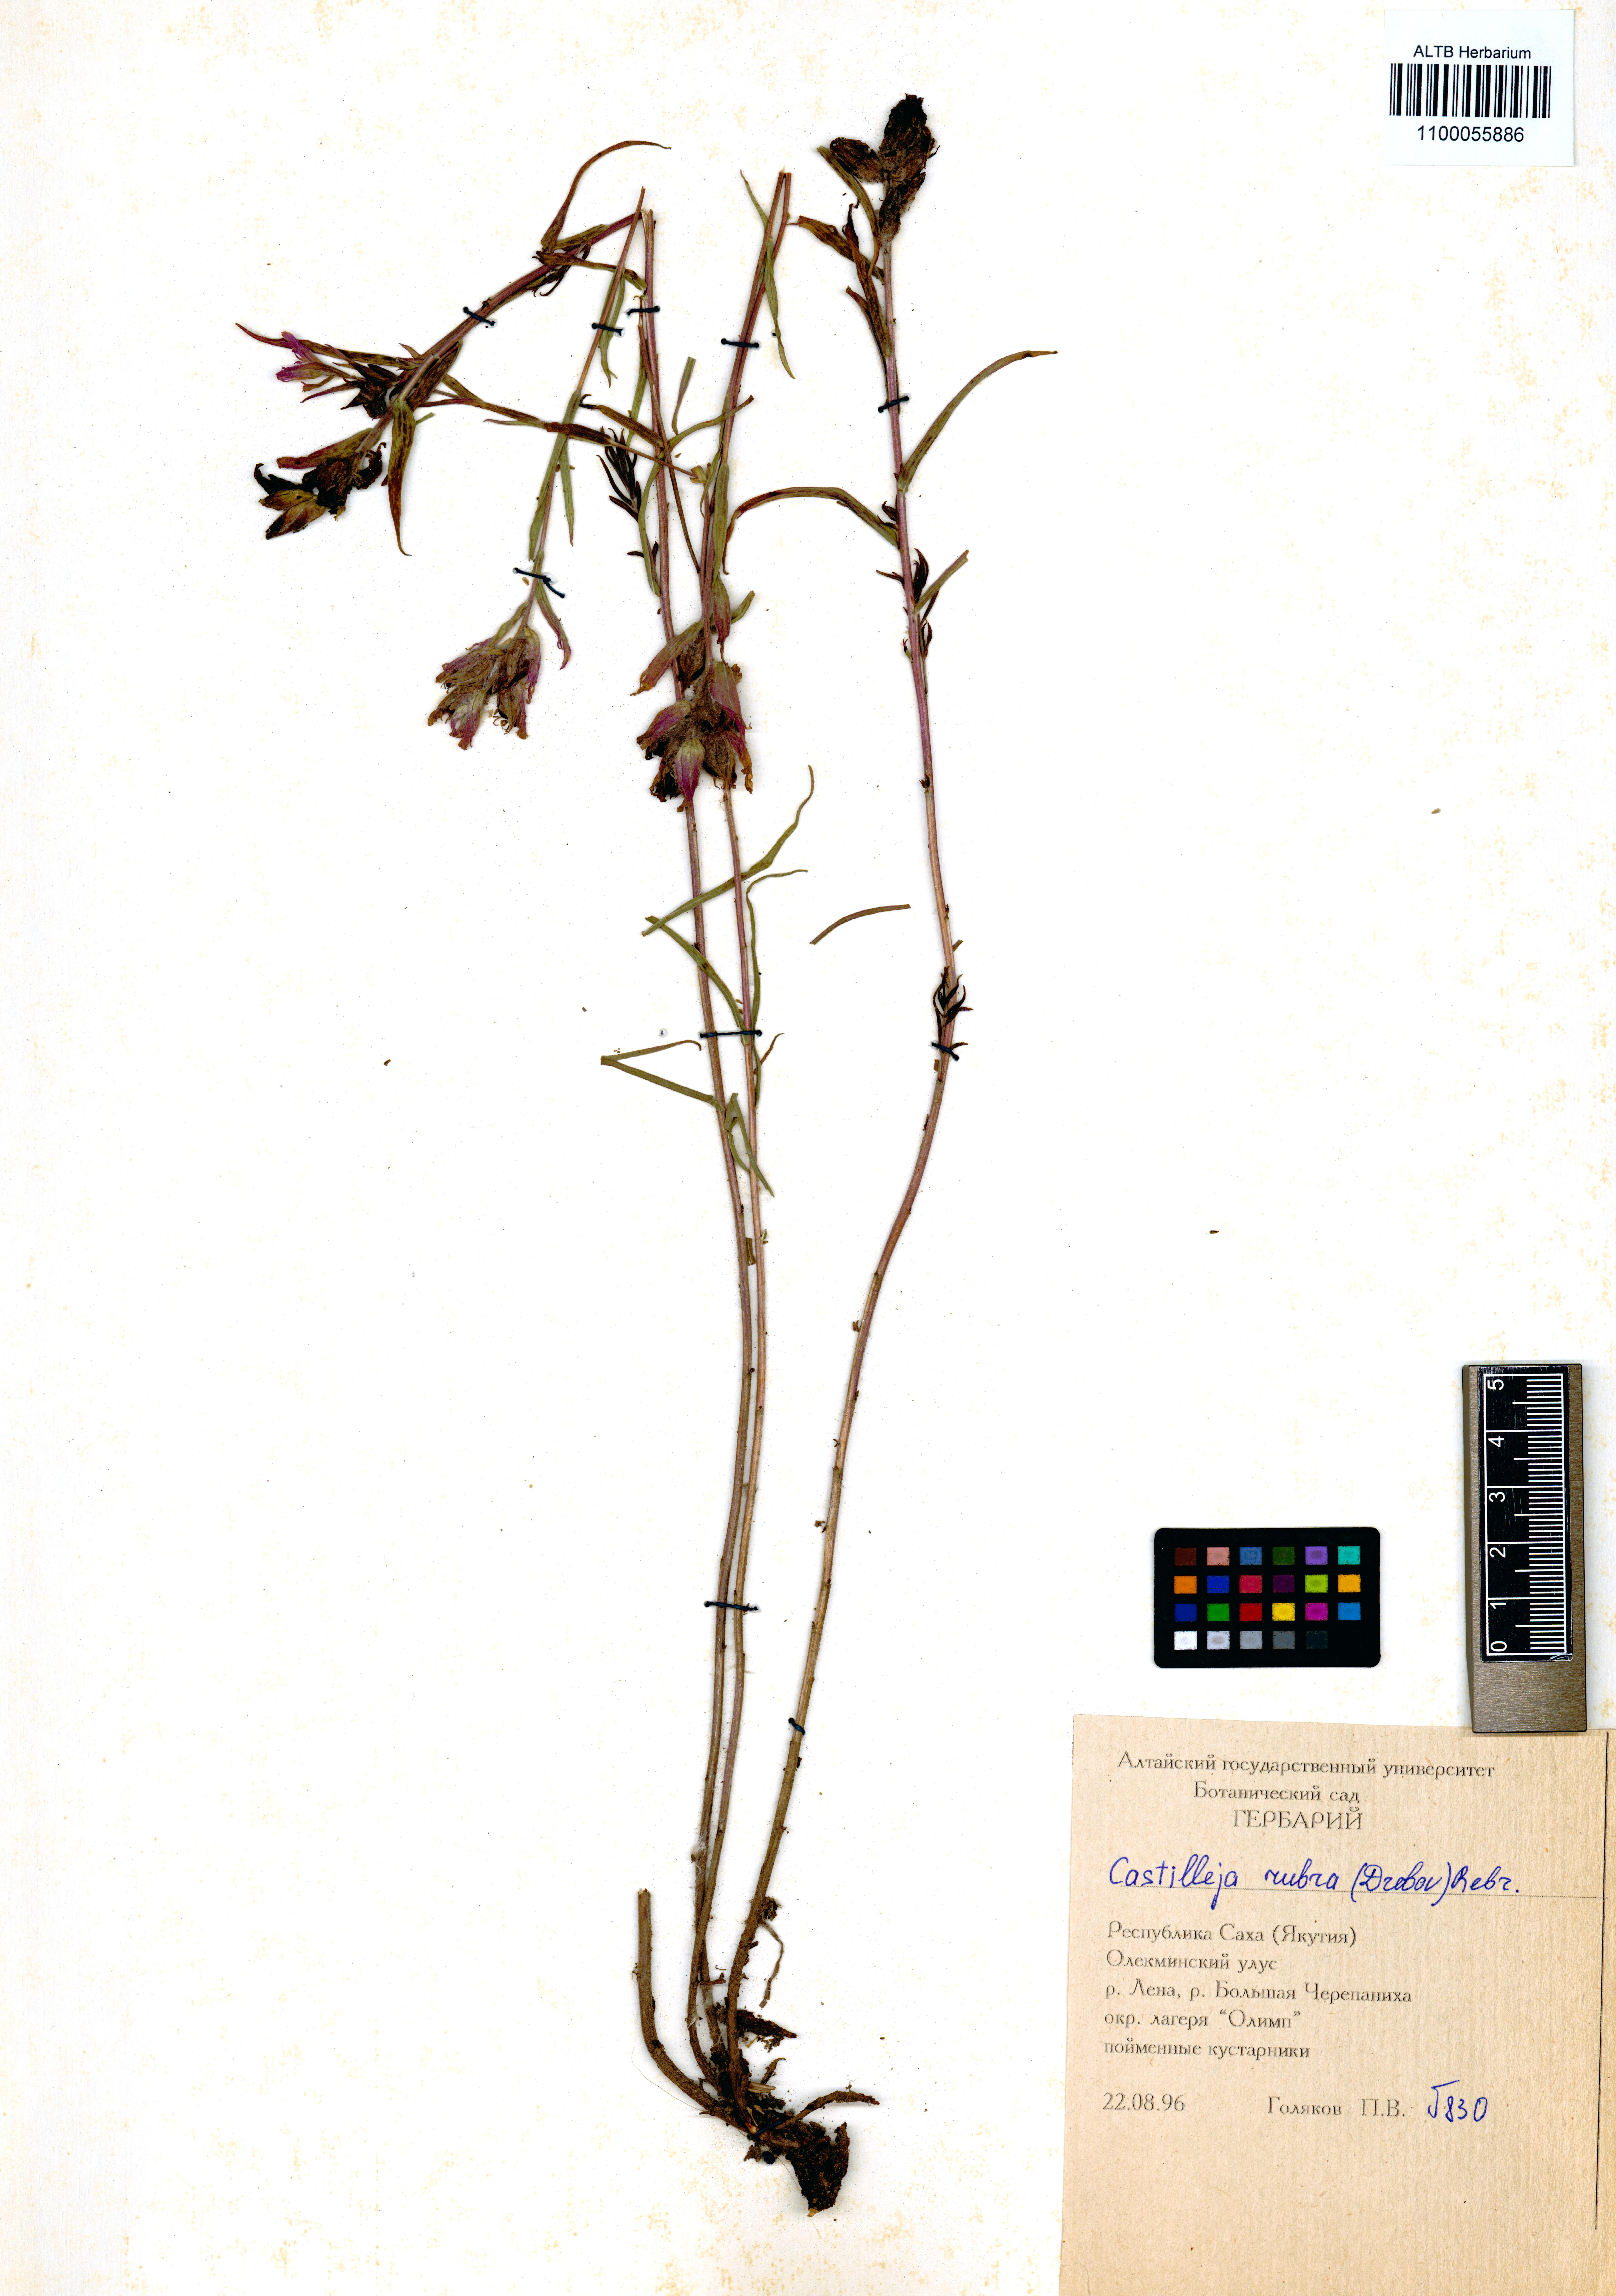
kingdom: Plantae
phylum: Tracheophyta
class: Magnoliopsida
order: Lamiales
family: Orobanchaceae
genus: Castilleja
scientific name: Castilleja rubra
